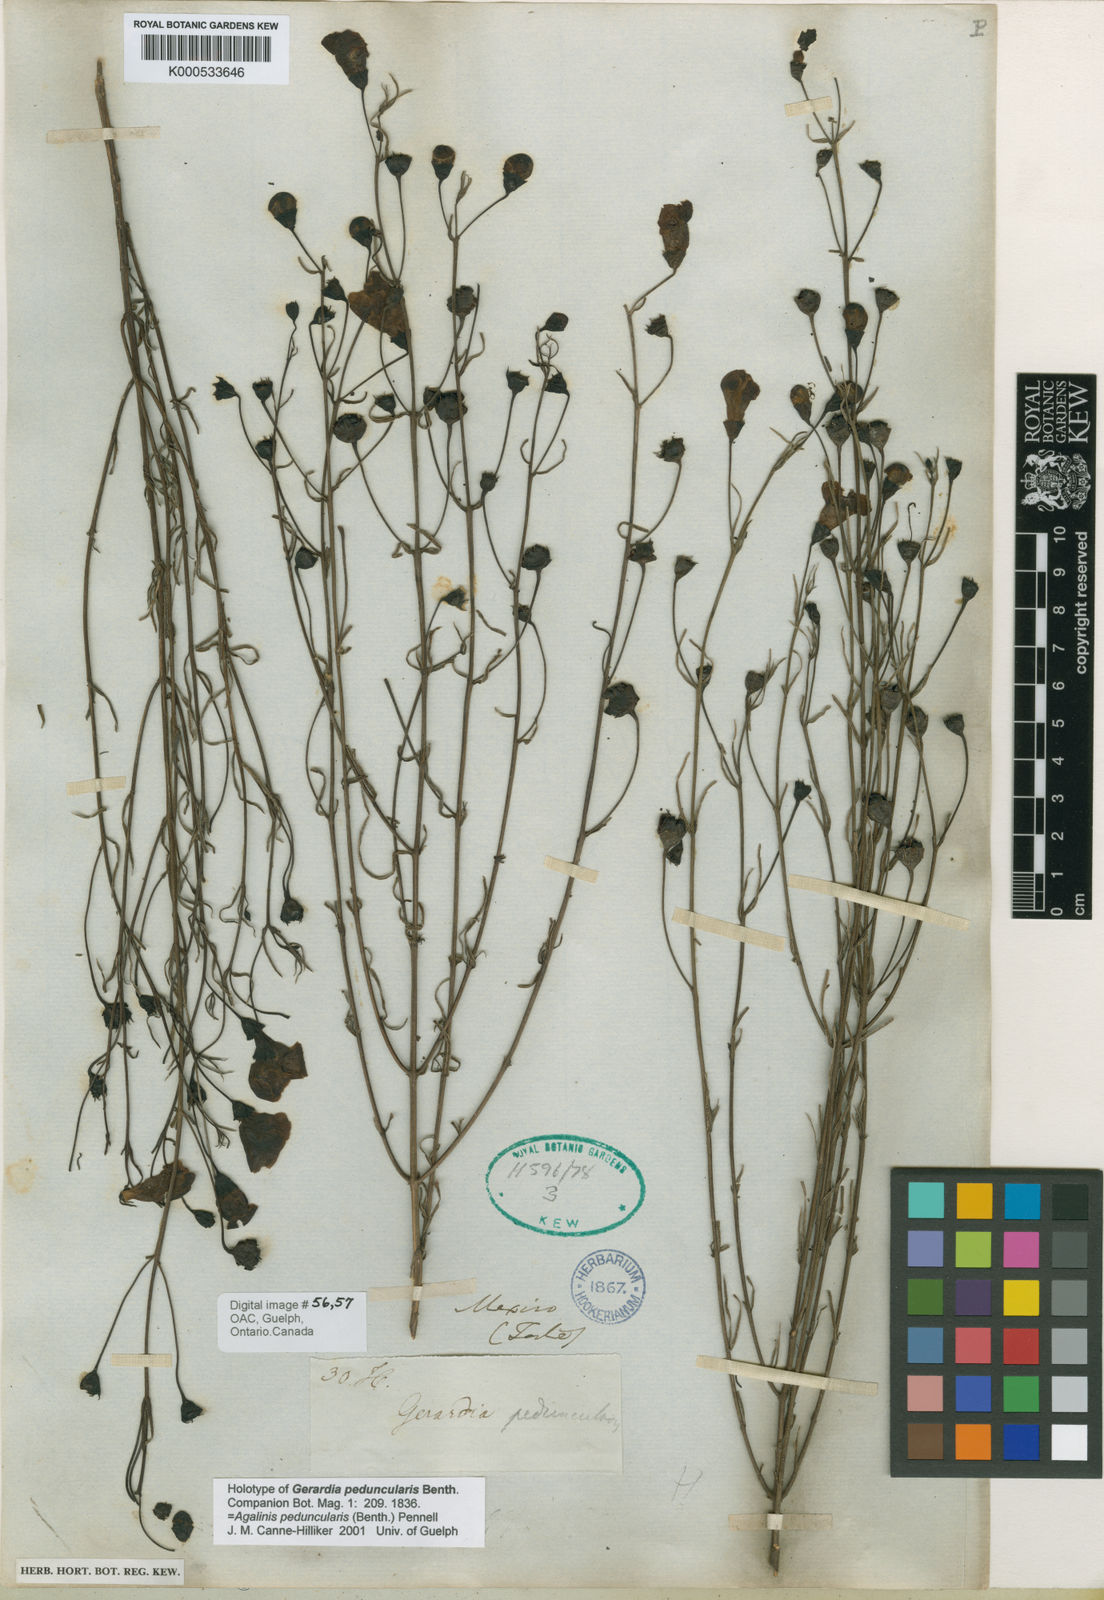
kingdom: Plantae
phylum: Tracheophyta
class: Magnoliopsida
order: Lamiales
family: Orobanchaceae
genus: Agalinis
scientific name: Agalinis peduncularis
